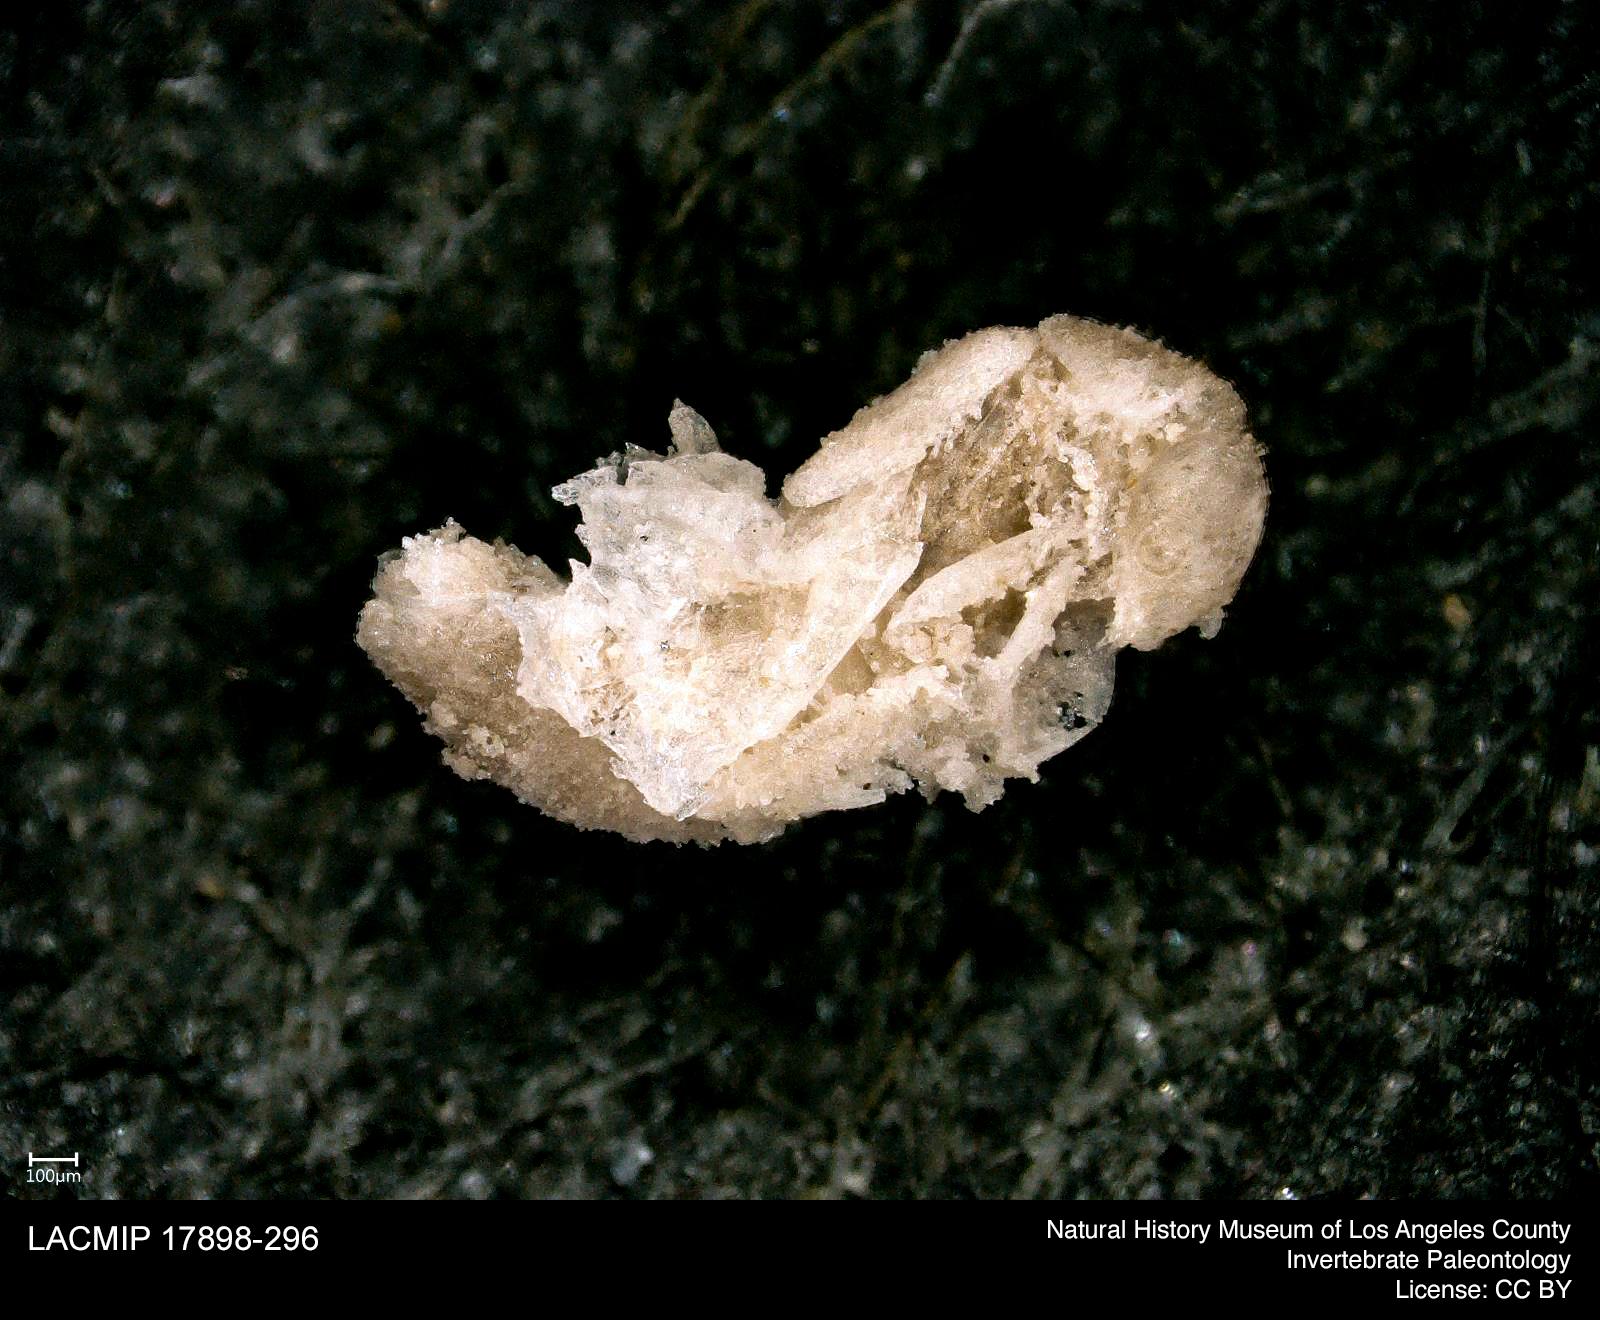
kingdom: Animalia
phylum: Arthropoda
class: Insecta
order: Coleoptera
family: Staphylinidae
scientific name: Staphylinidae
